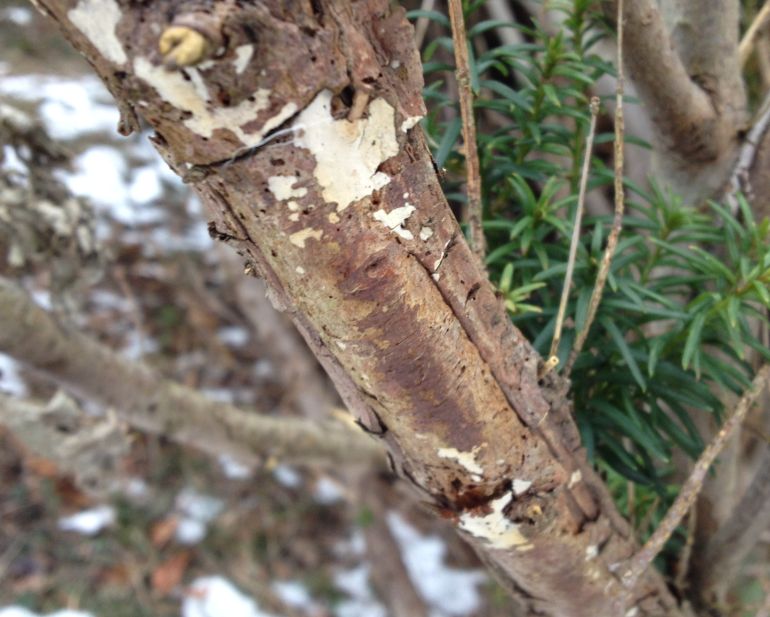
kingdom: Fungi
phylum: Basidiomycota
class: Agaricomycetes
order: Russulales
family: Echinodontiaceae
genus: Amylostereum
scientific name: Amylostereum laevigatum
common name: ene-lædersvamp
